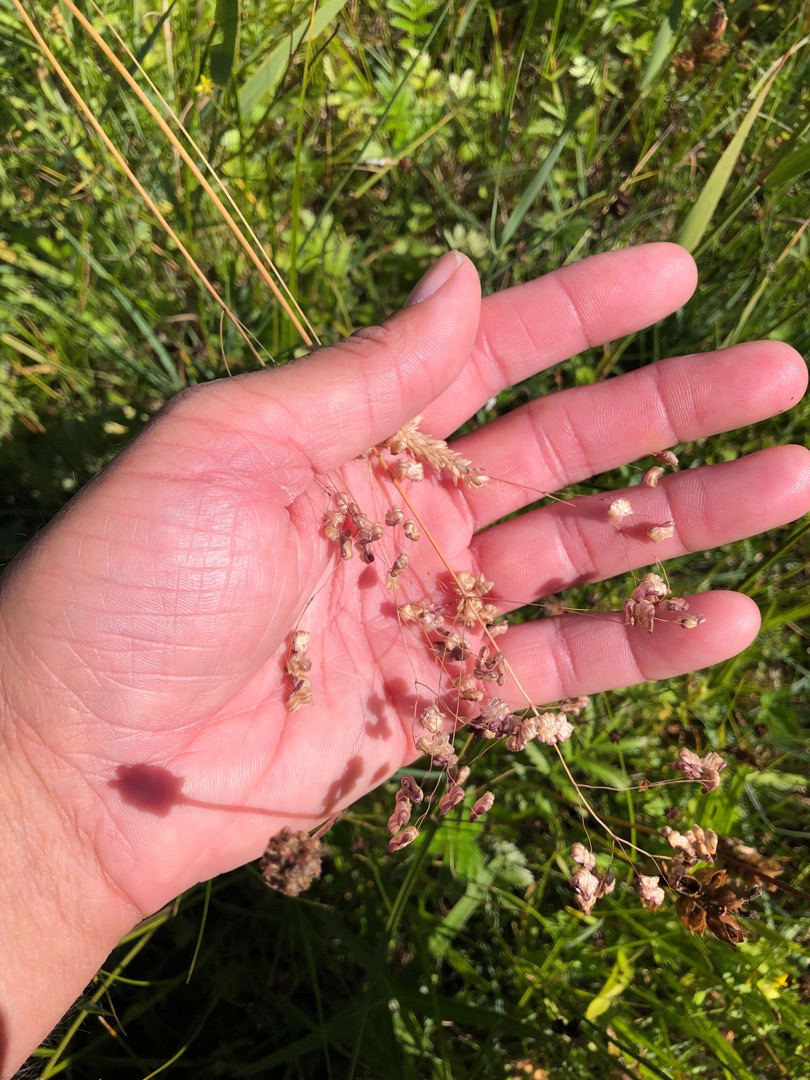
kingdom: Plantae
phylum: Tracheophyta
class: Liliopsida
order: Poales
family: Poaceae
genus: Briza
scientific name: Briza media
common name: Hjertegræs
